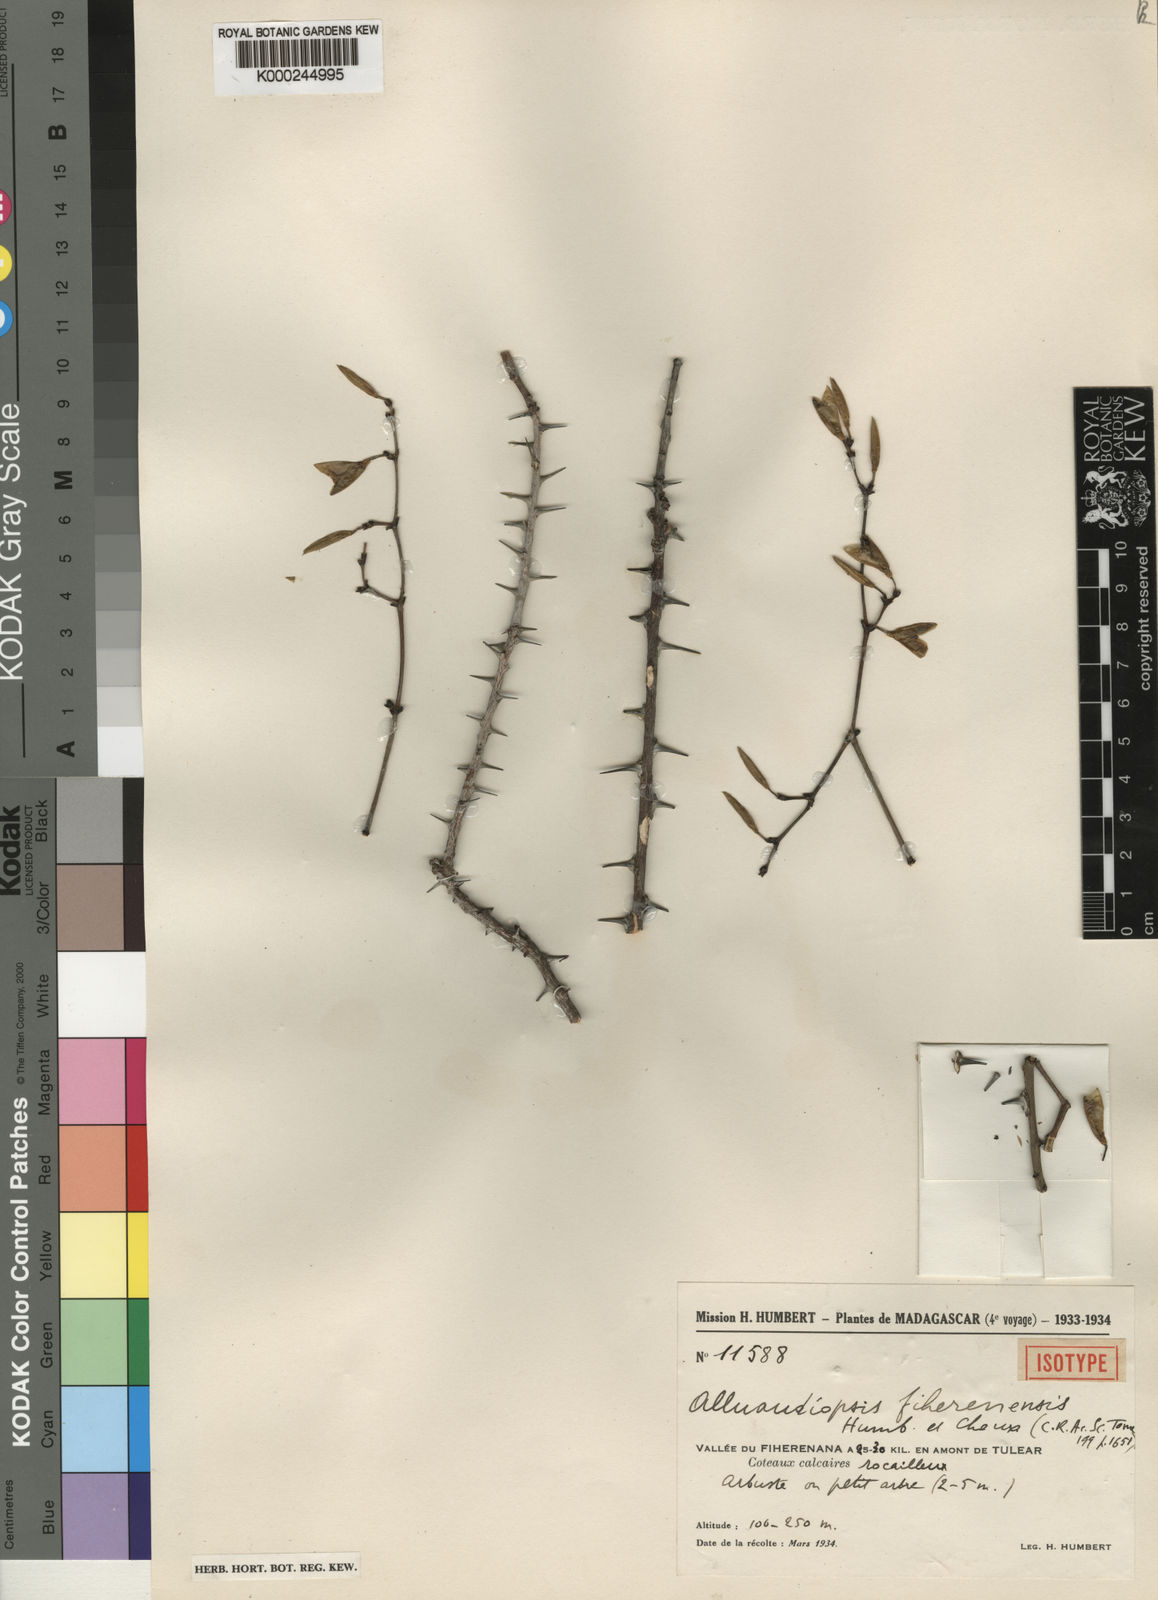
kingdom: Plantae
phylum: Tracheophyta
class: Magnoliopsida
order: Caryophyllales
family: Didiereaceae
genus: Alluaudiopsis
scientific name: Alluaudiopsis fiherenensis
